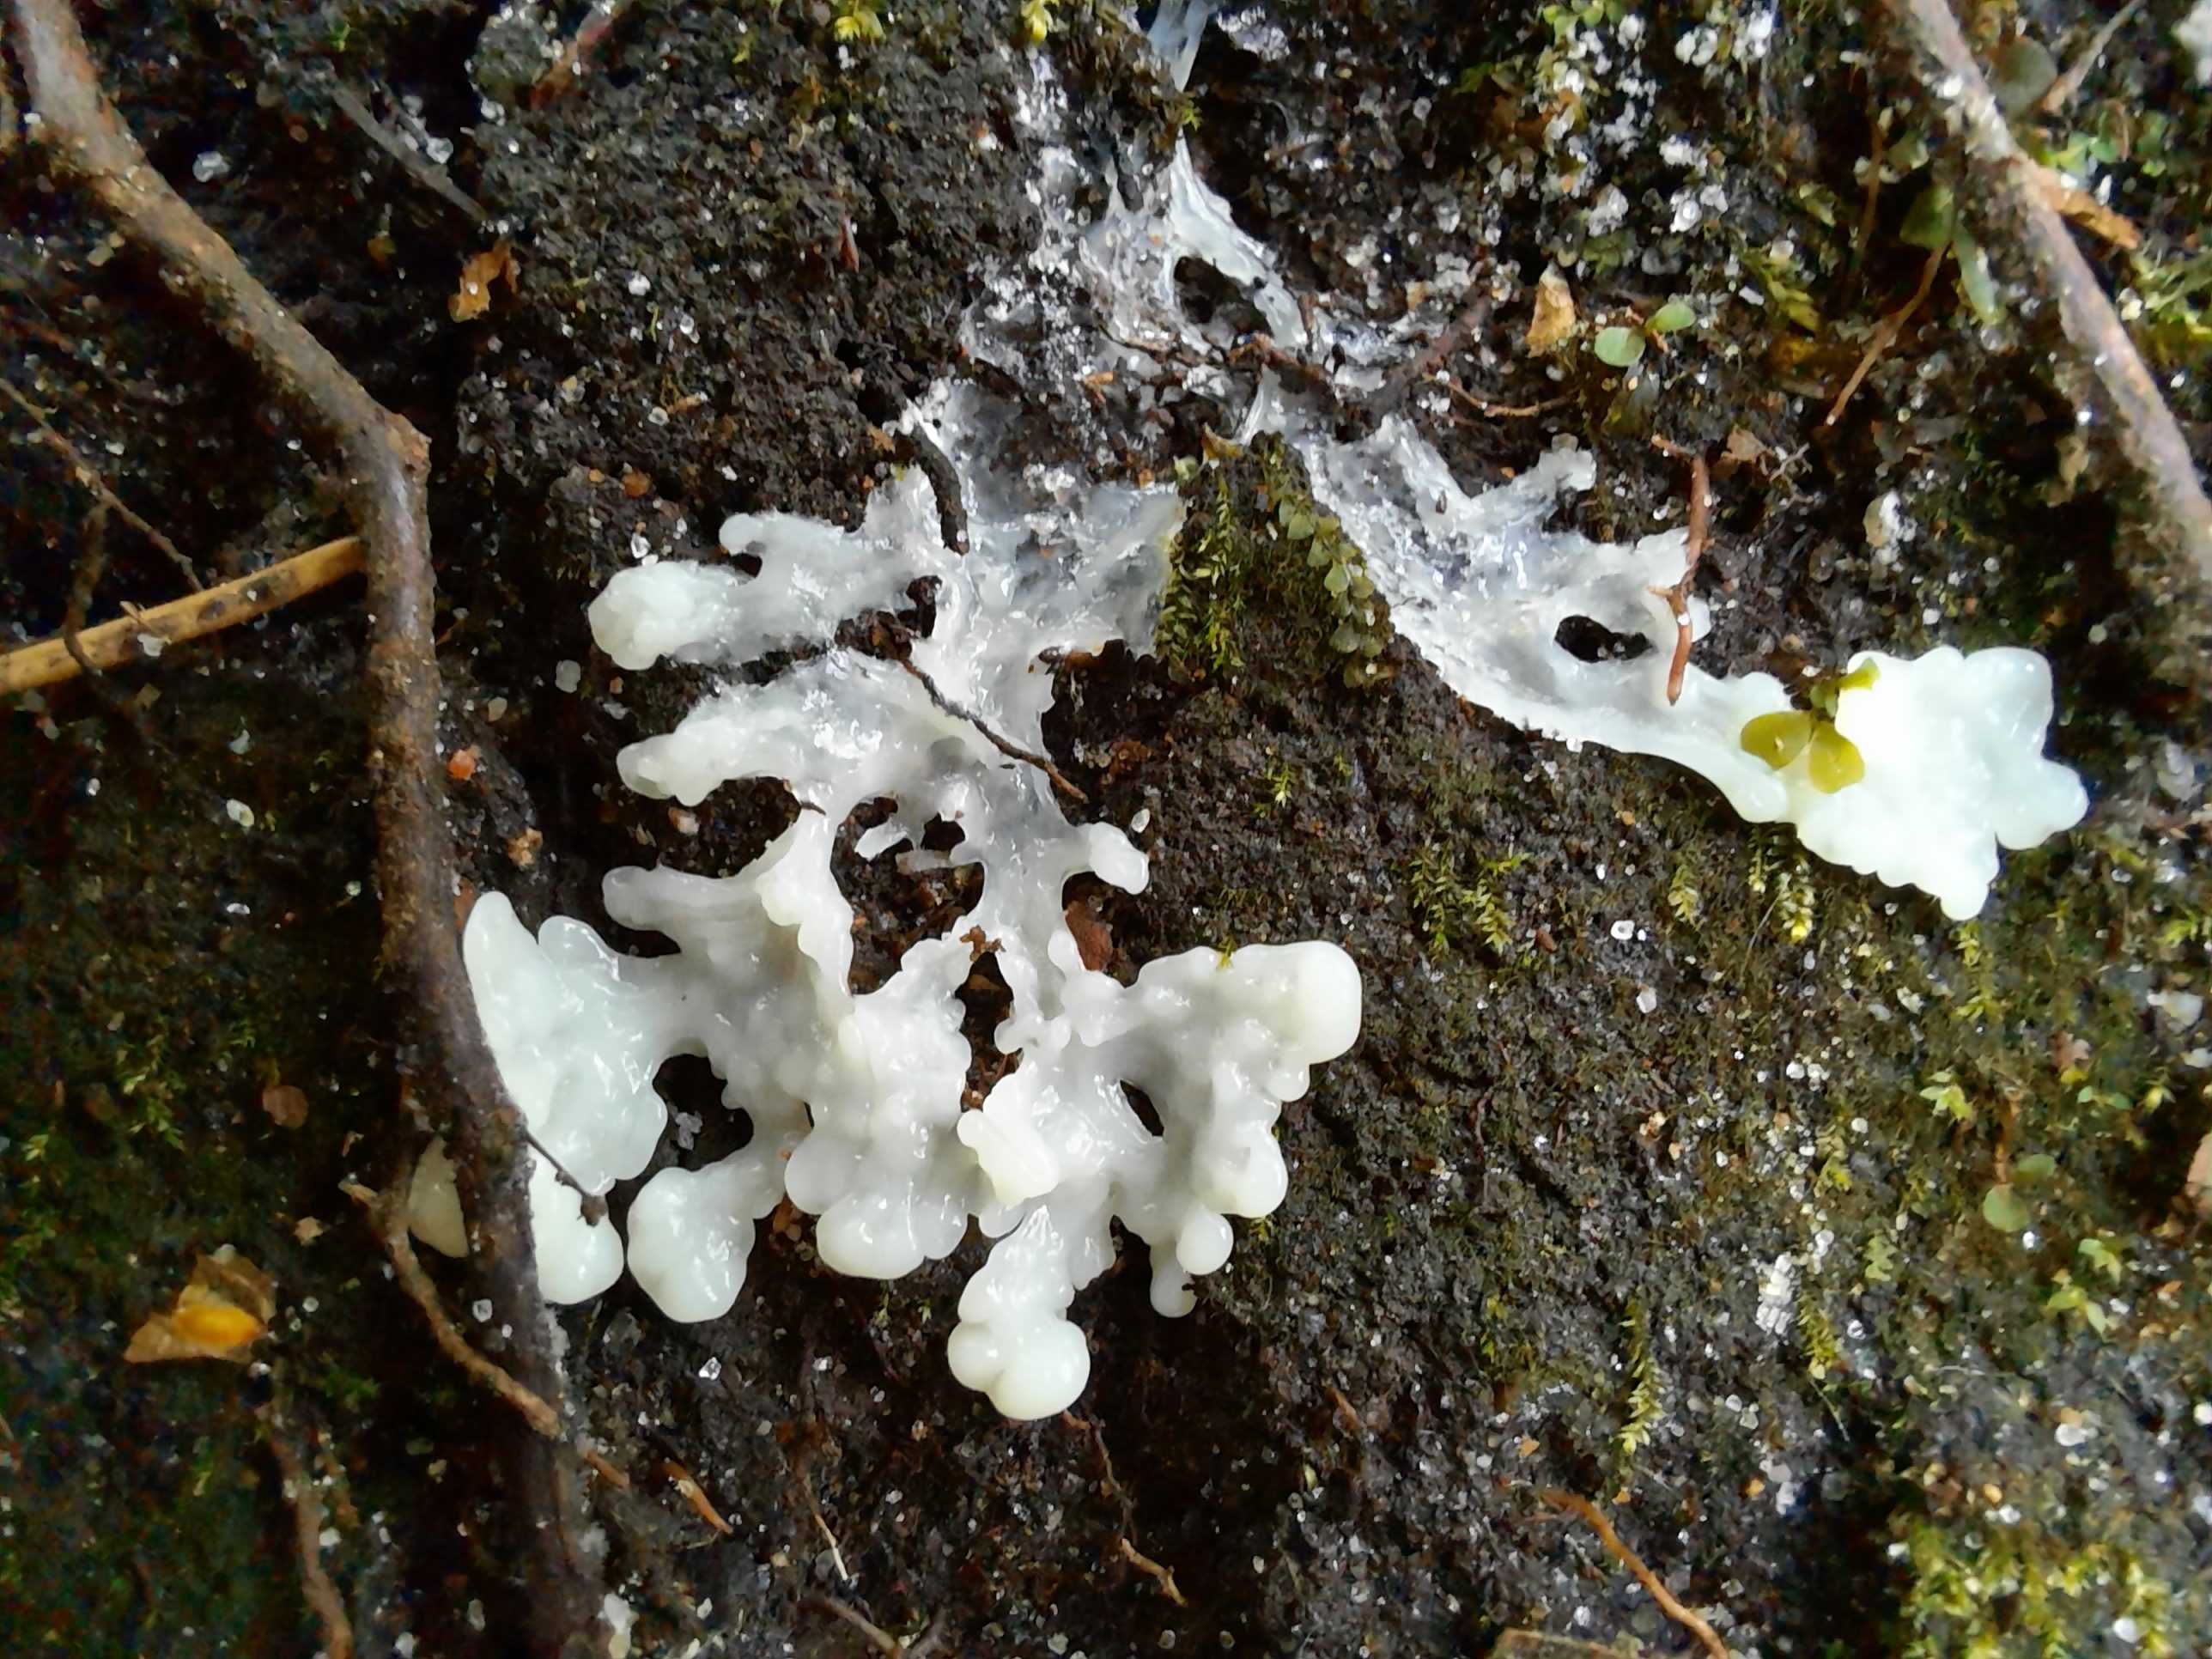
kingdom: Protozoa
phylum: Mycetozoa
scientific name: Mycetozoa
